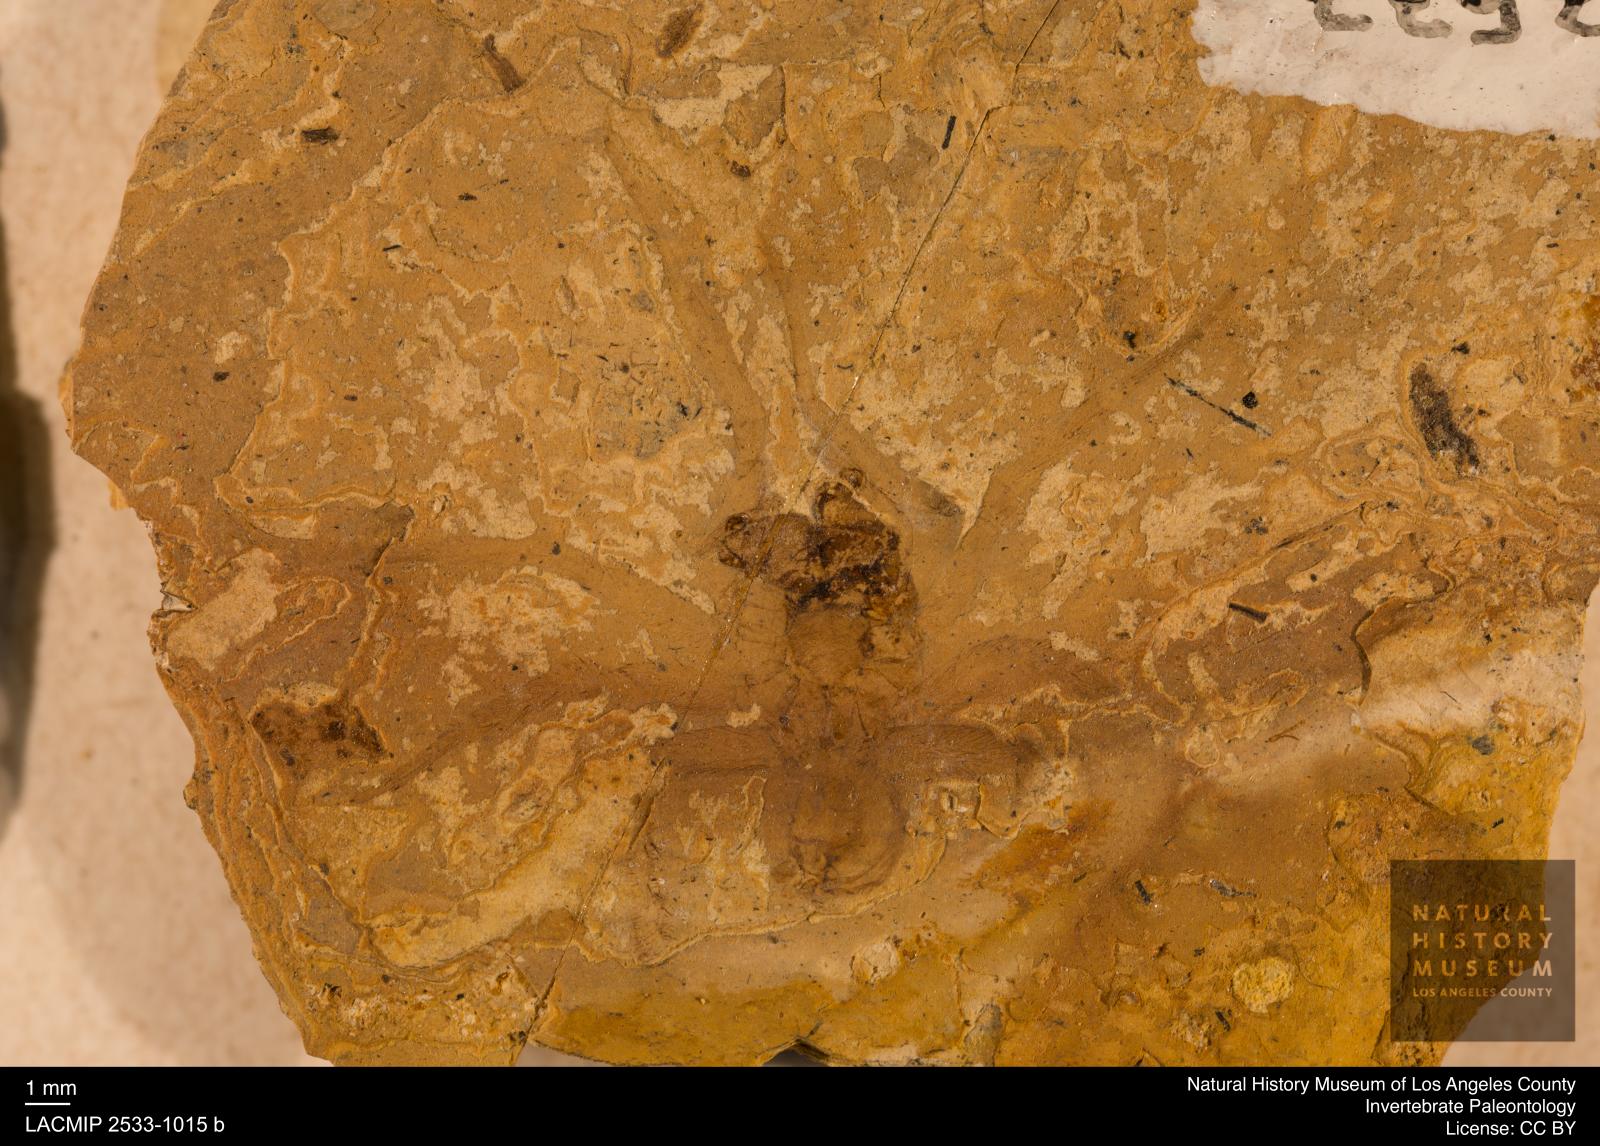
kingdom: Animalia
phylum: Arthropoda
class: Arachnida
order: Araneae
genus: Elvina
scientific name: Elvina Argyroneta antiqua
